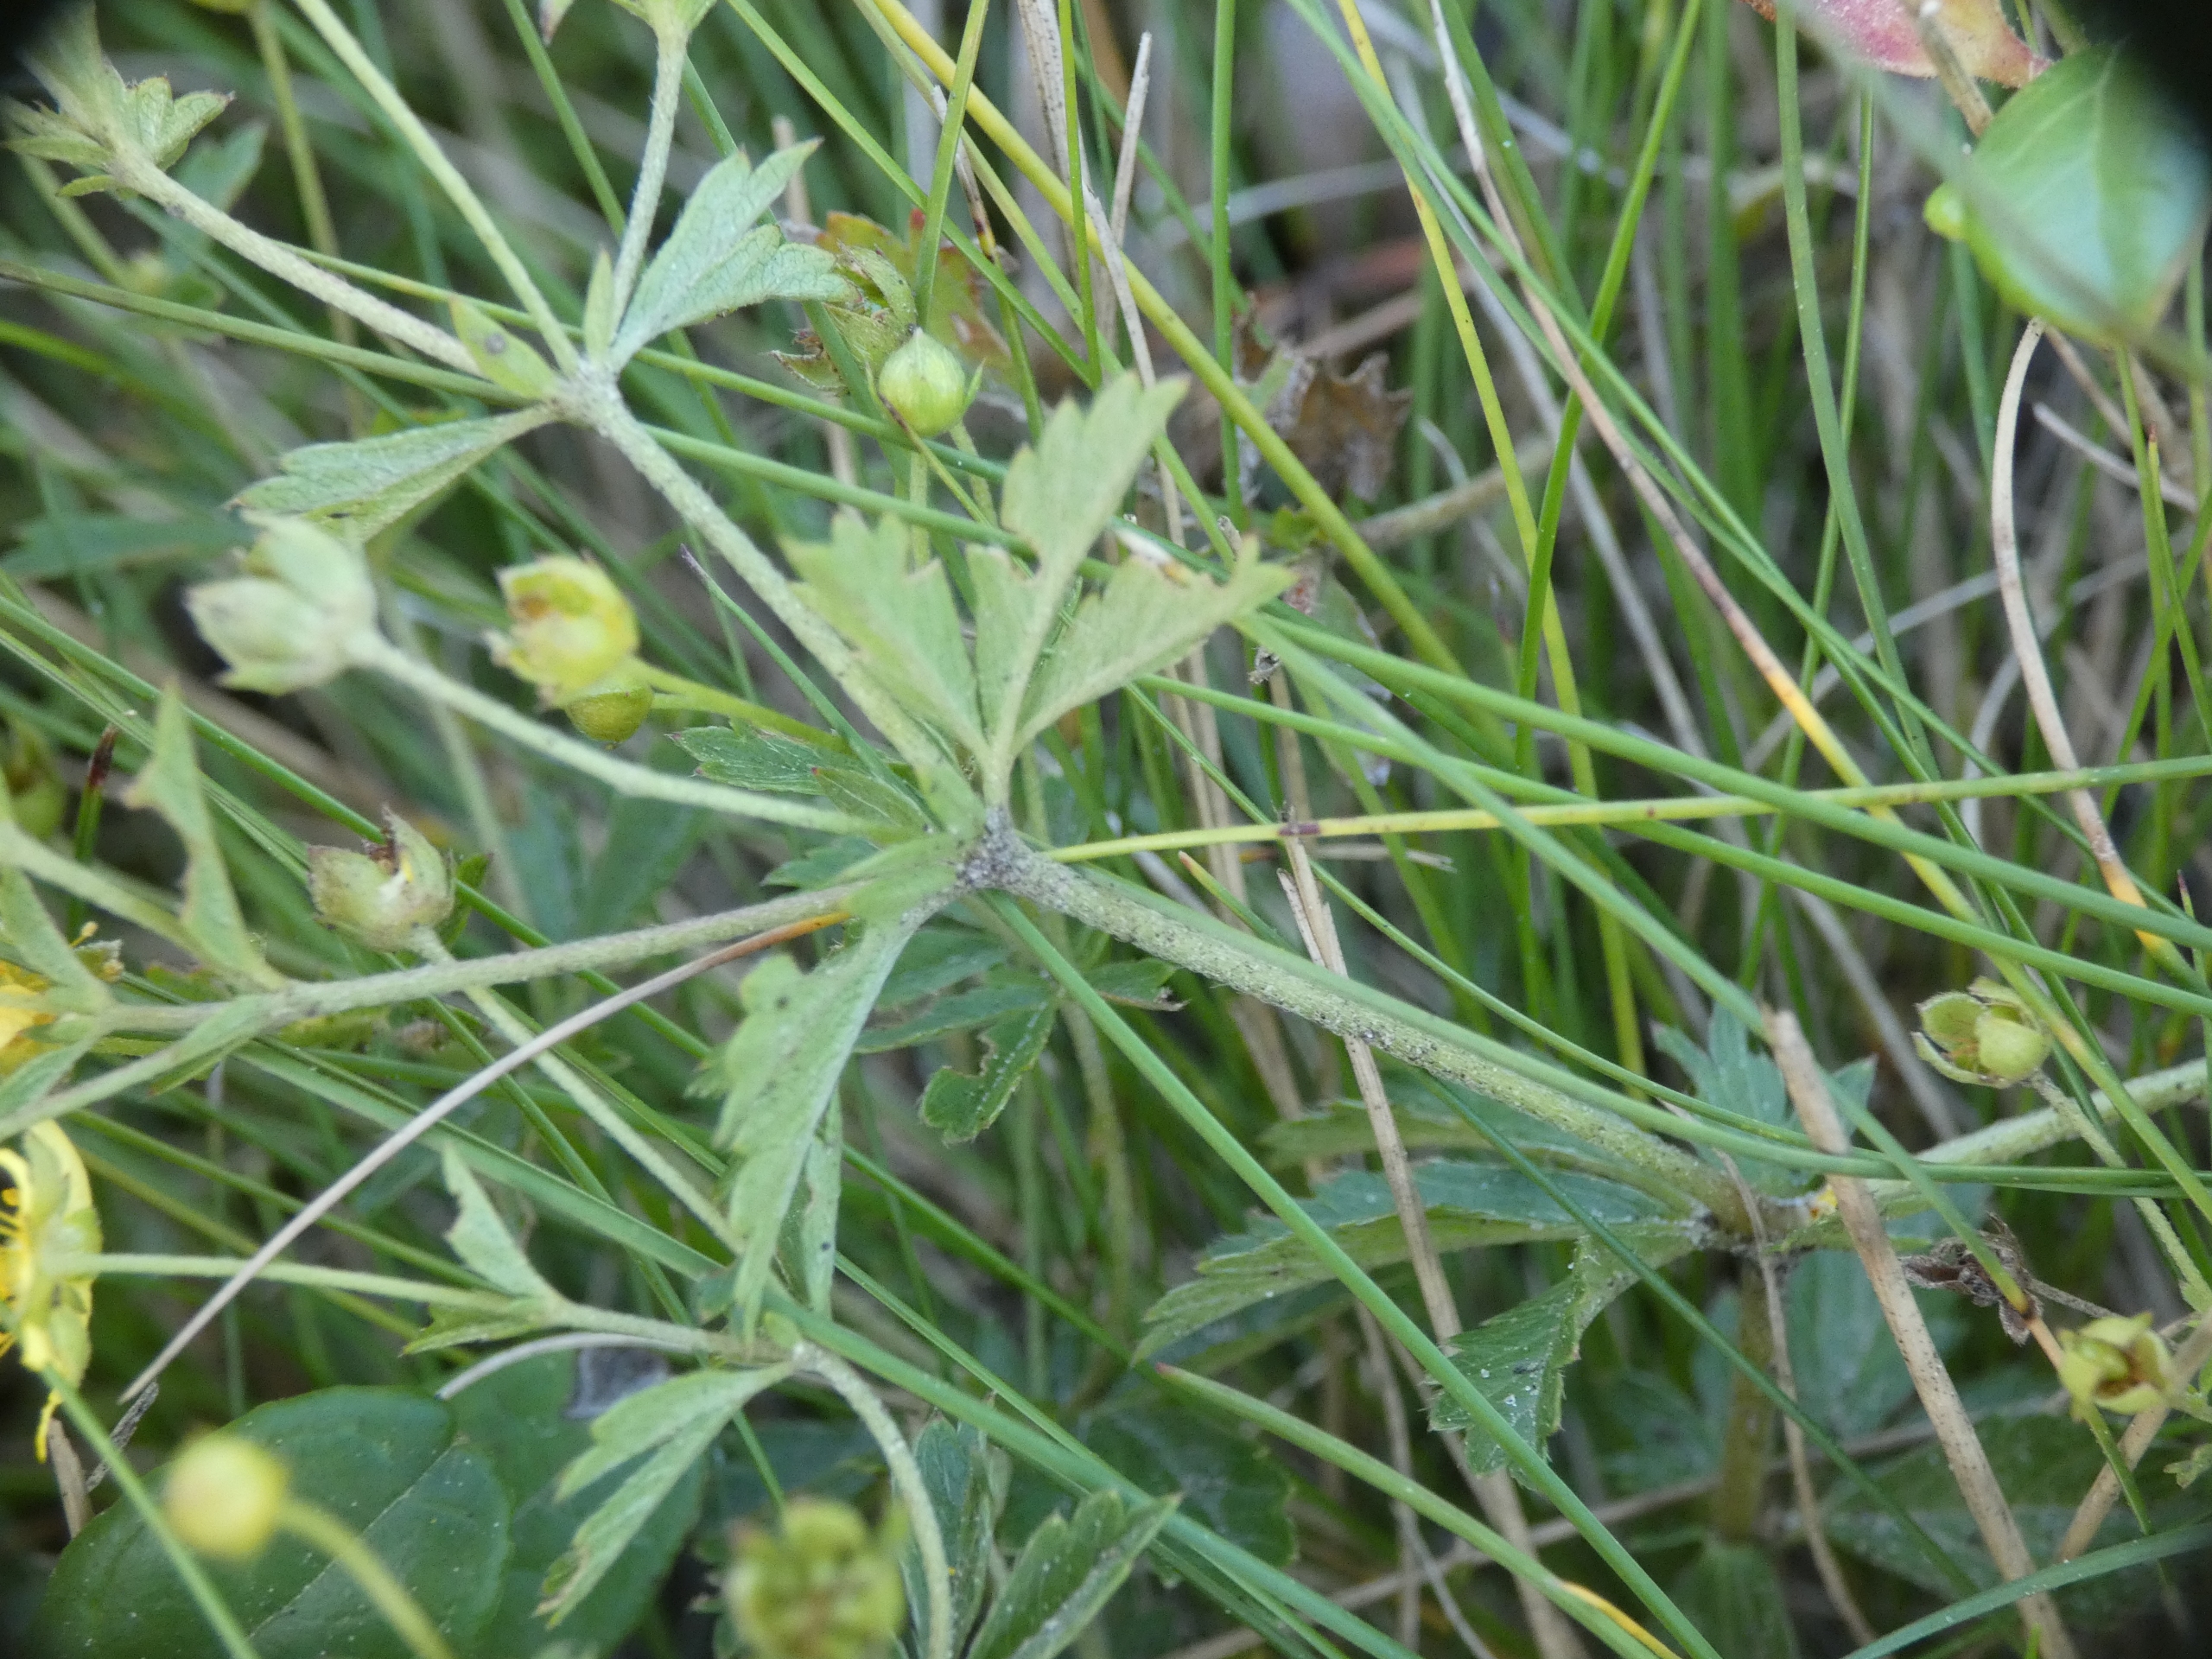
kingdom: Plantae
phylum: Tracheophyta
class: Magnoliopsida
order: Rosales
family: Rosaceae
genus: Potentilla
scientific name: Potentilla erecta
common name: Tormentil
